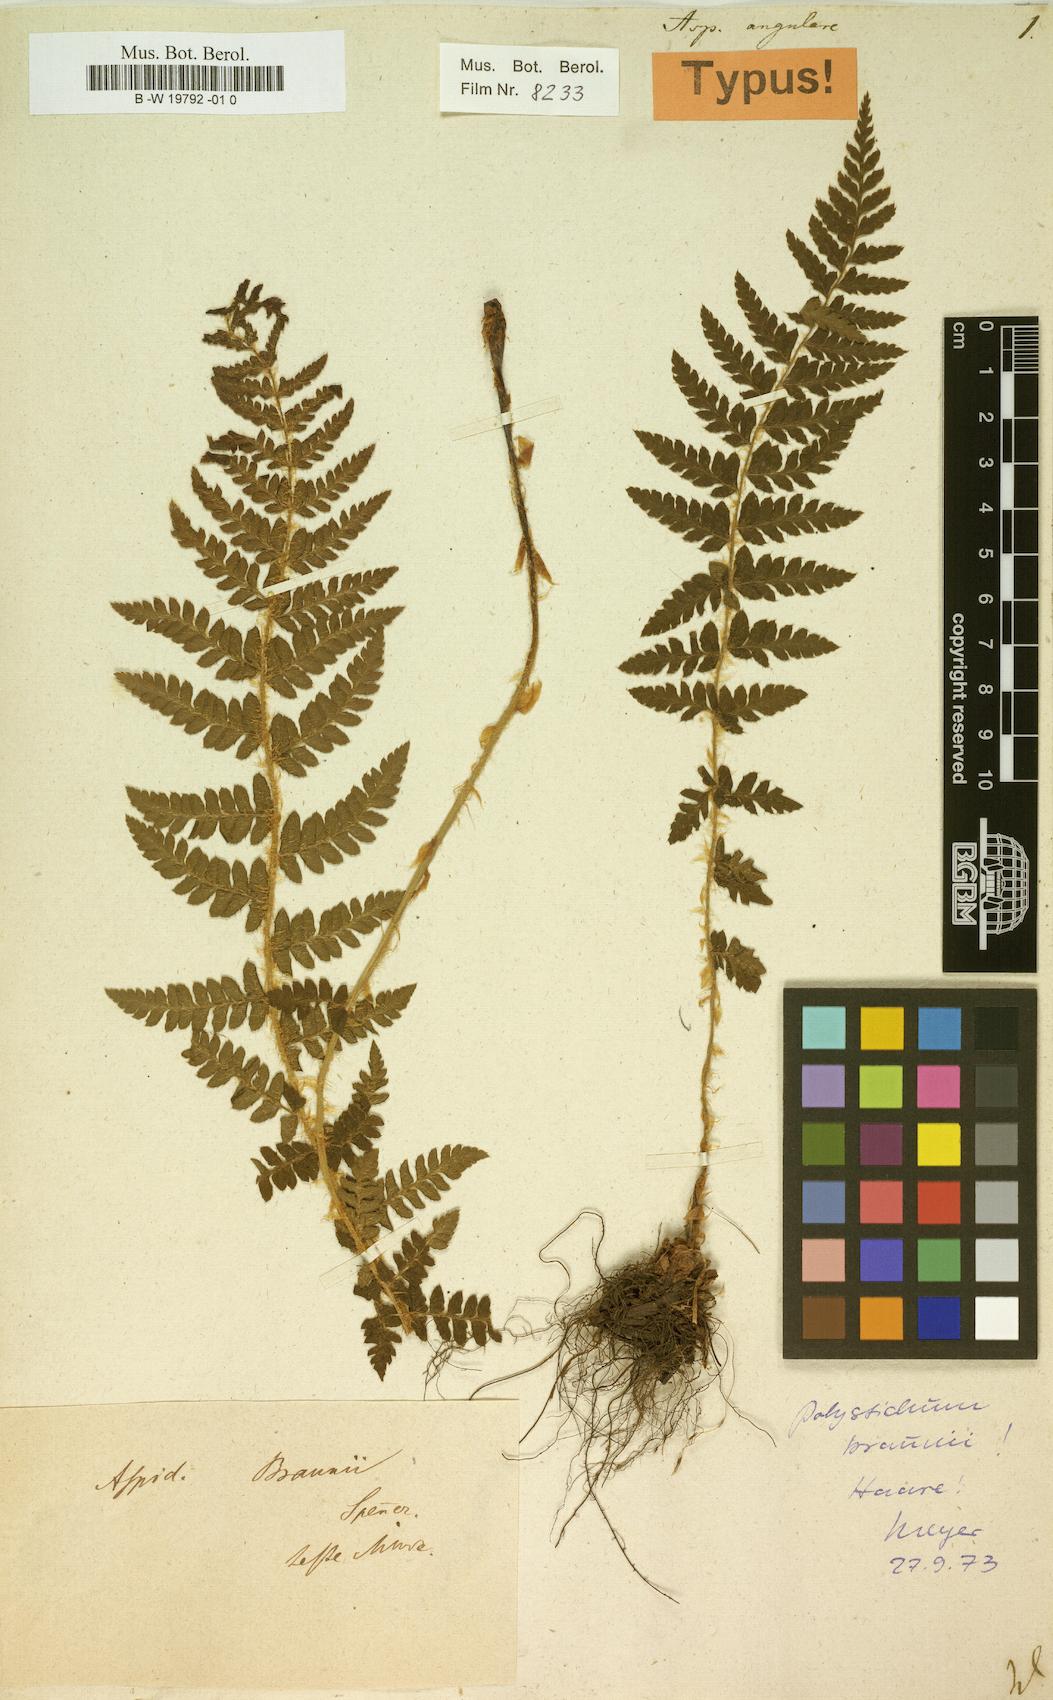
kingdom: Plantae
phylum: Tracheophyta
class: Polypodiopsida
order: Polypodiales
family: Dryopteridaceae
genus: Polystichum
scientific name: Polystichum setiferum
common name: Soft shield-fern
